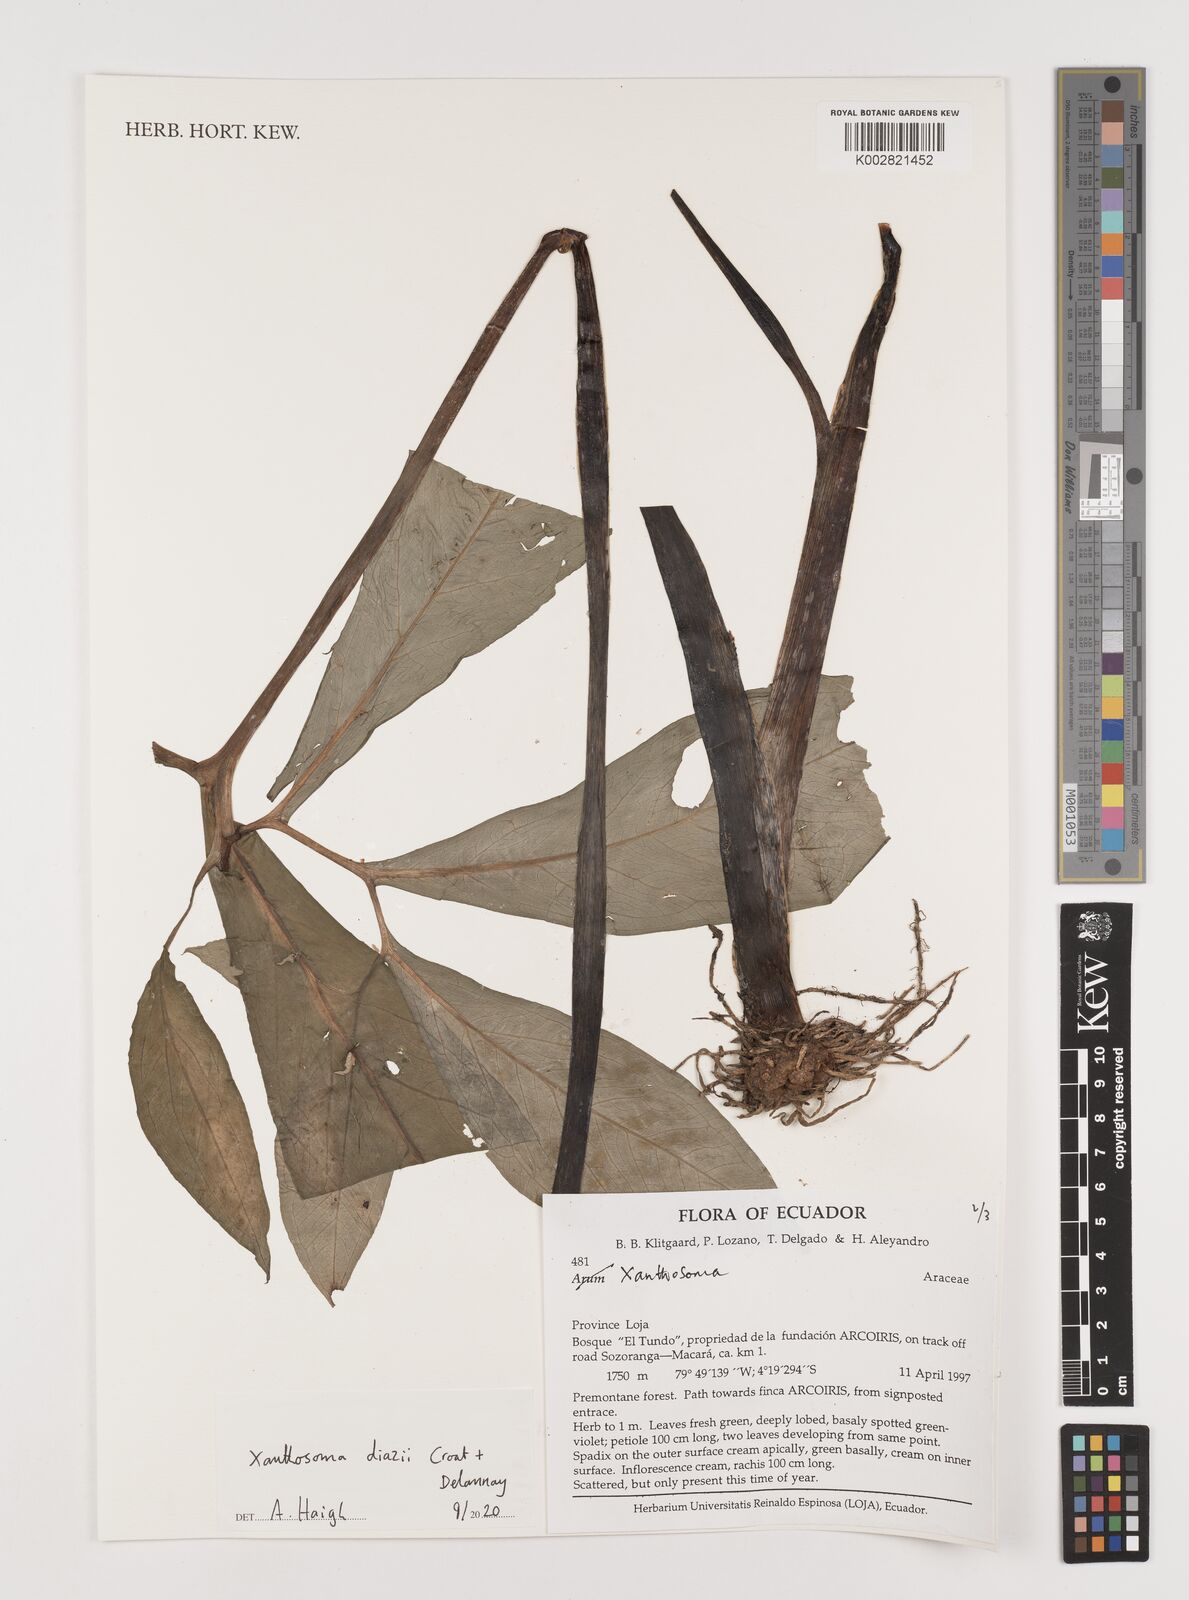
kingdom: Plantae
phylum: Tracheophyta
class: Liliopsida
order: Alismatales
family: Araceae
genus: Xanthosoma
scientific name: Xanthosoma diazii
